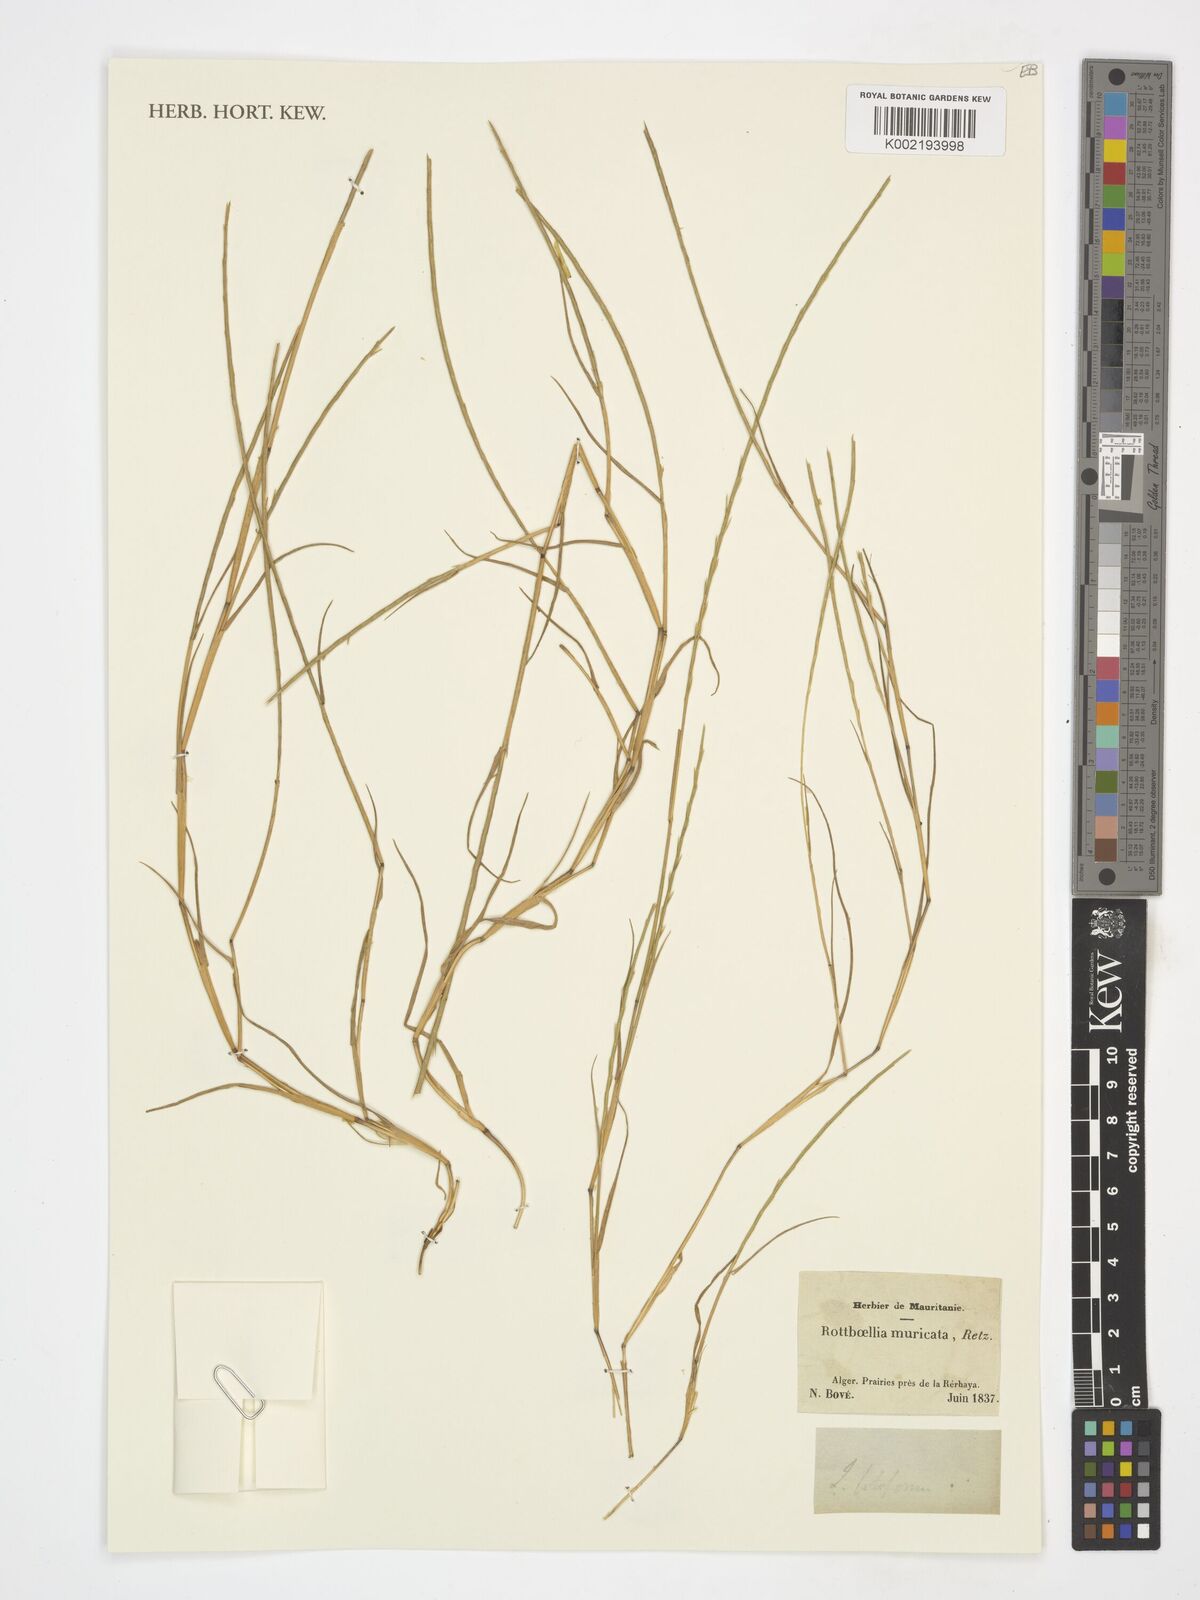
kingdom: Plantae
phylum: Tracheophyta
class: Liliopsida
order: Poales
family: Poaceae
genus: Eremochloa
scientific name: Eremochloa muricata
